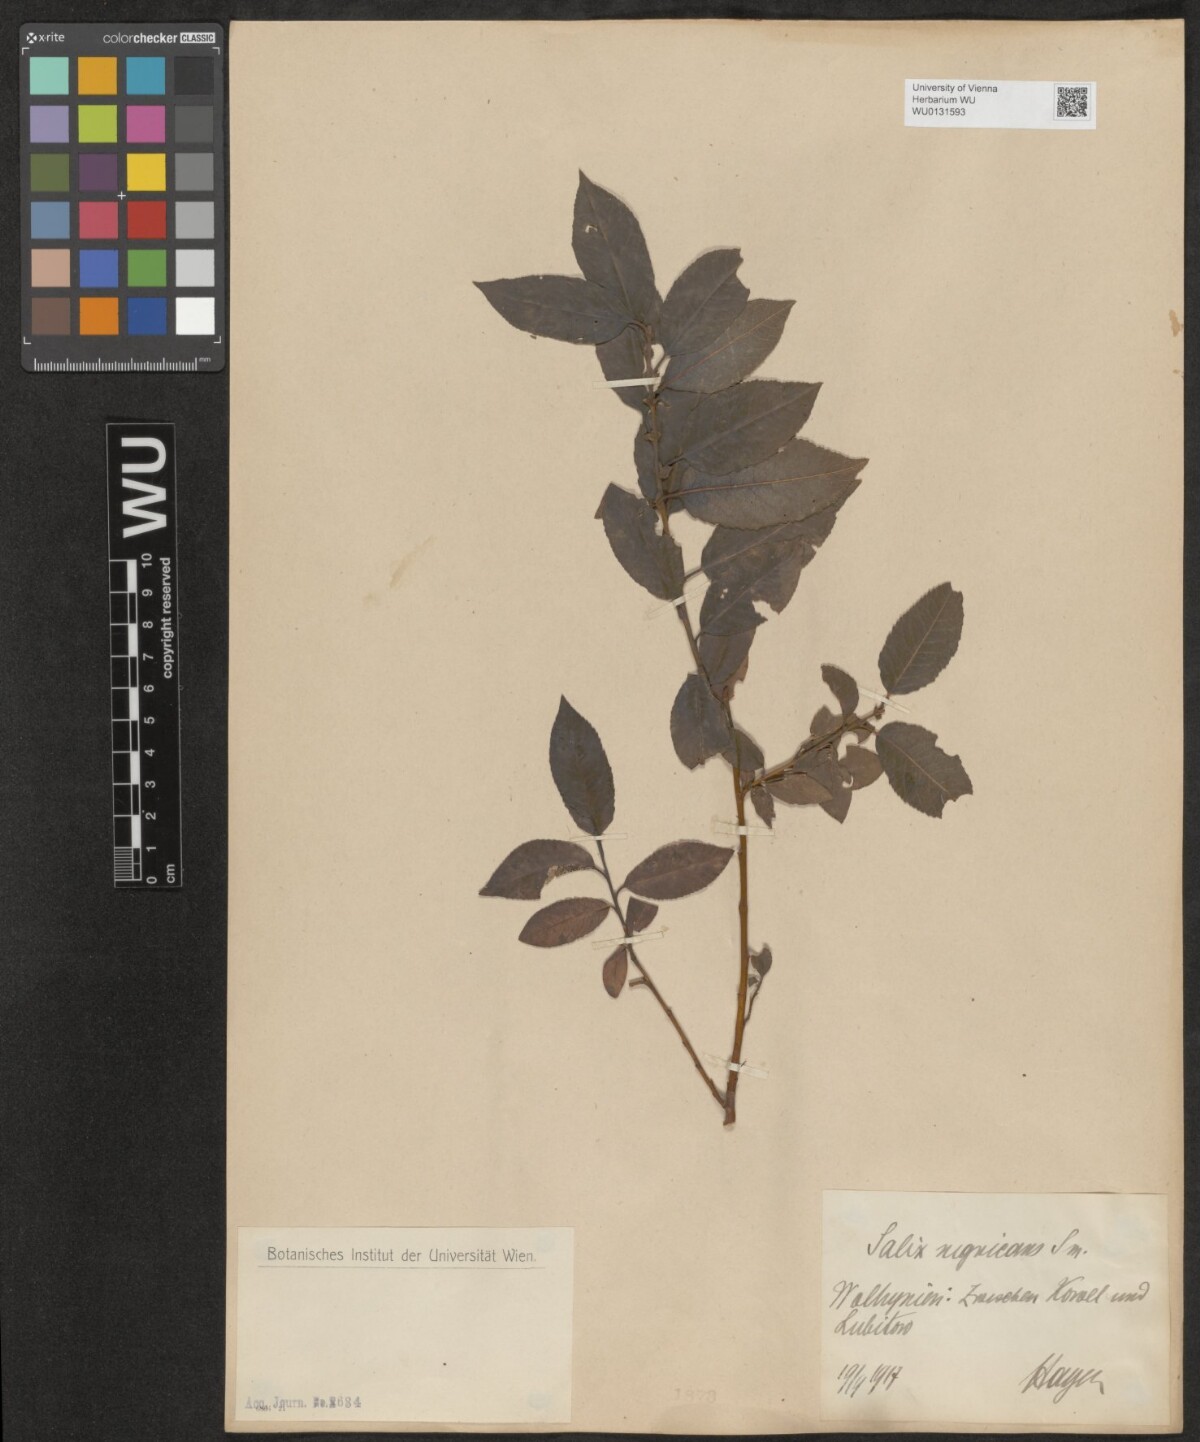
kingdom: Plantae
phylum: Tracheophyta
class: Magnoliopsida
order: Malpighiales
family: Salicaceae
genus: Salix
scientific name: Salix myrsinifolia
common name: Dark-leaved willow
